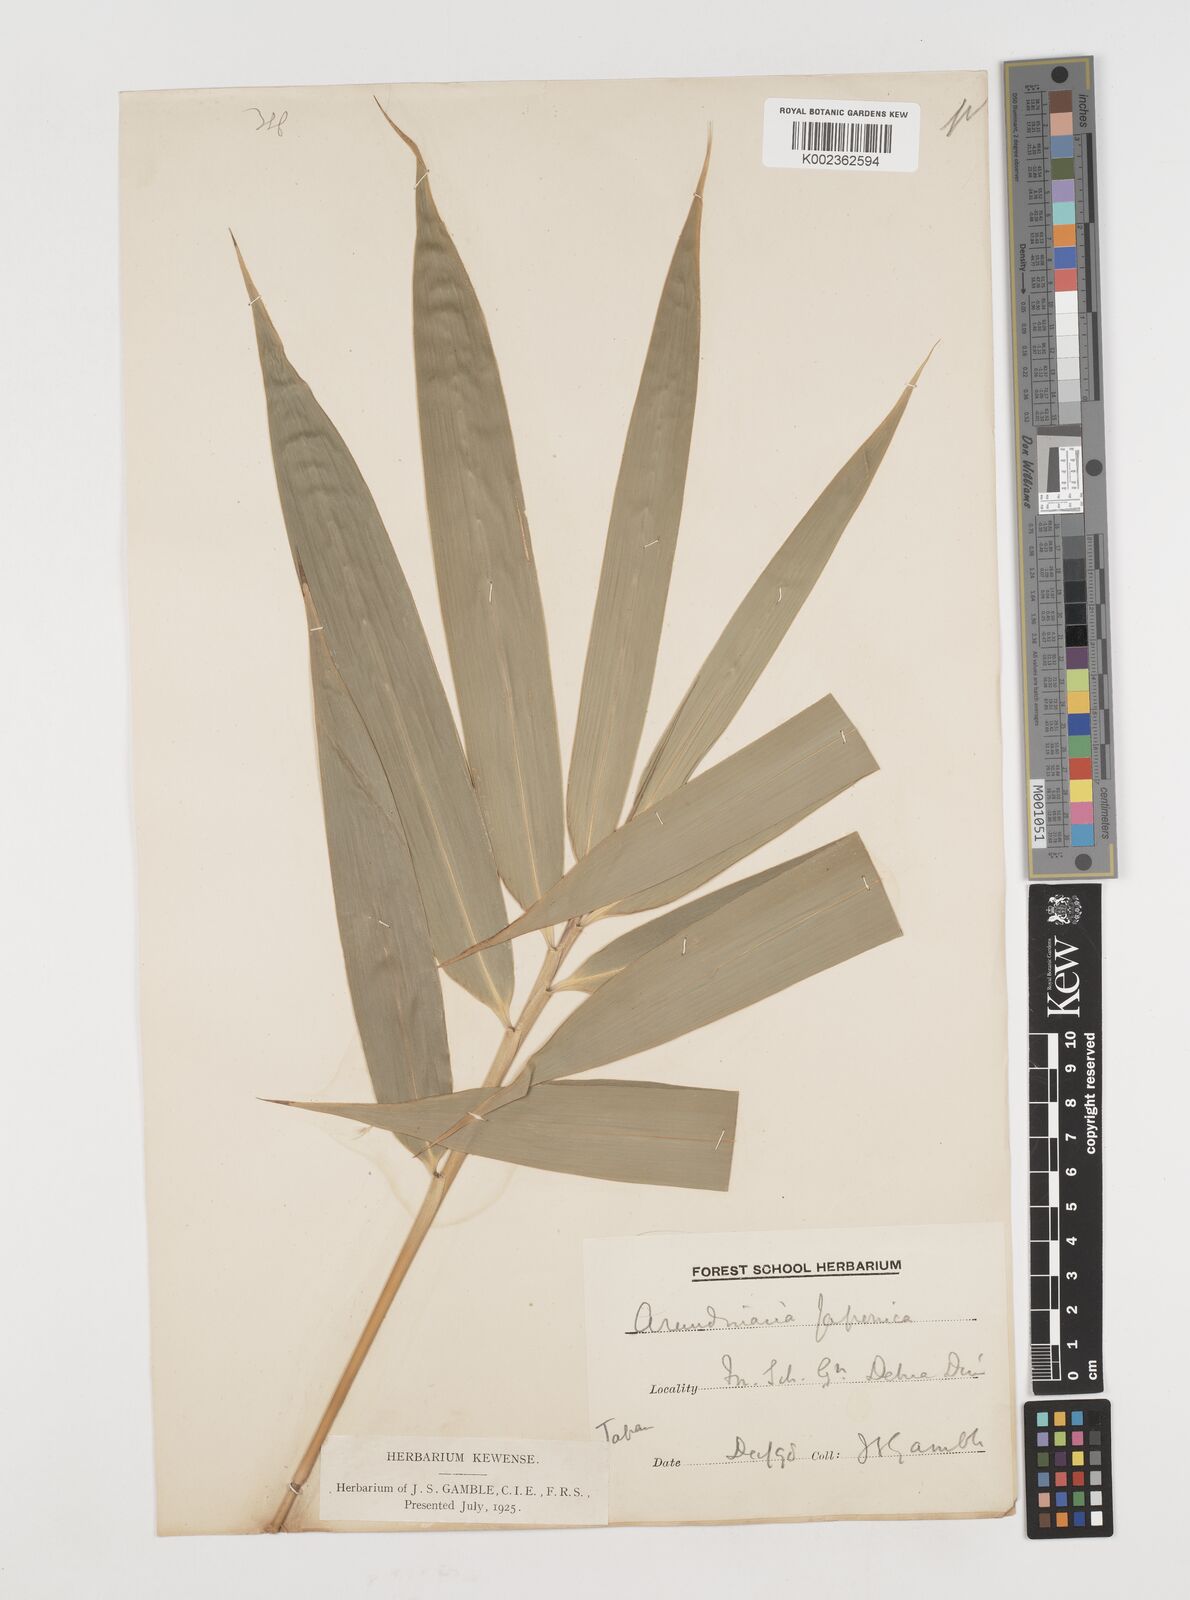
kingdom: Plantae
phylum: Tracheophyta
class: Liliopsida
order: Poales
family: Poaceae
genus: Pseudosasa
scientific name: Pseudosasa japonica
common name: Arrow bamboo
